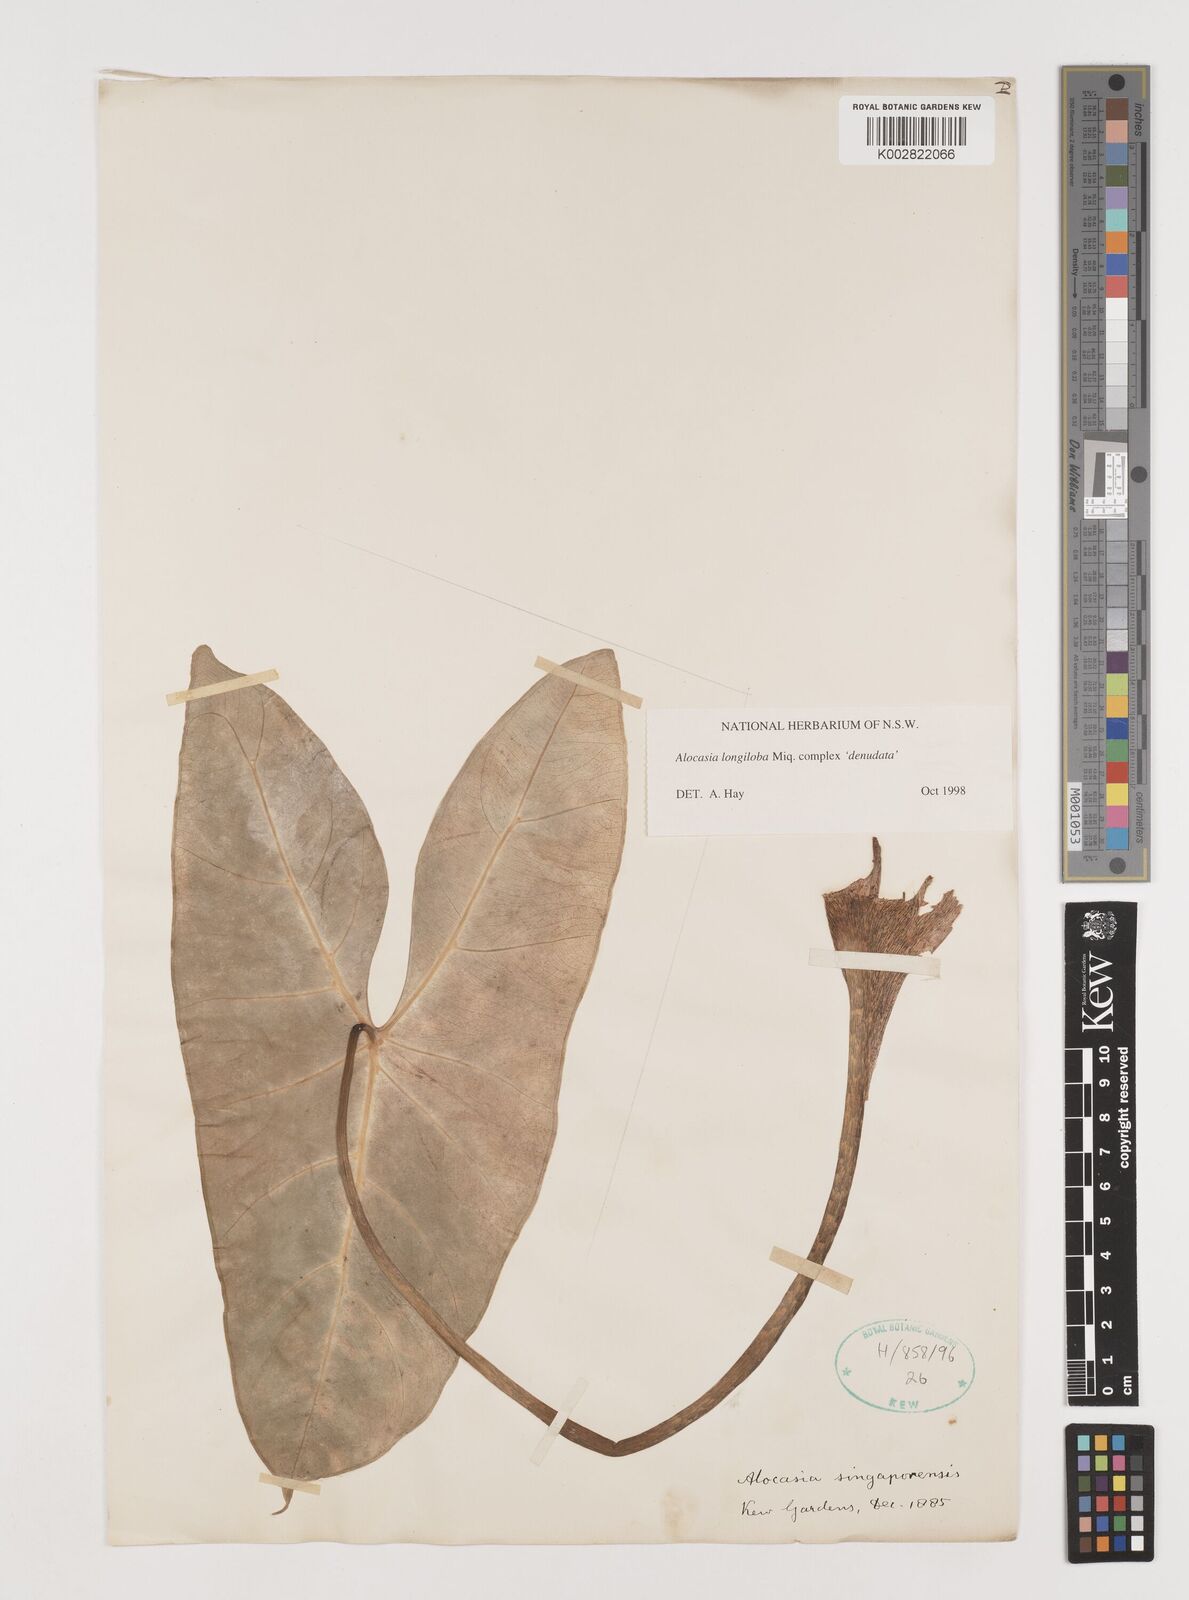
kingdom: Plantae
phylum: Tracheophyta
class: Liliopsida
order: Alismatales
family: Araceae
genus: Alocasia
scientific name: Alocasia longiloba
